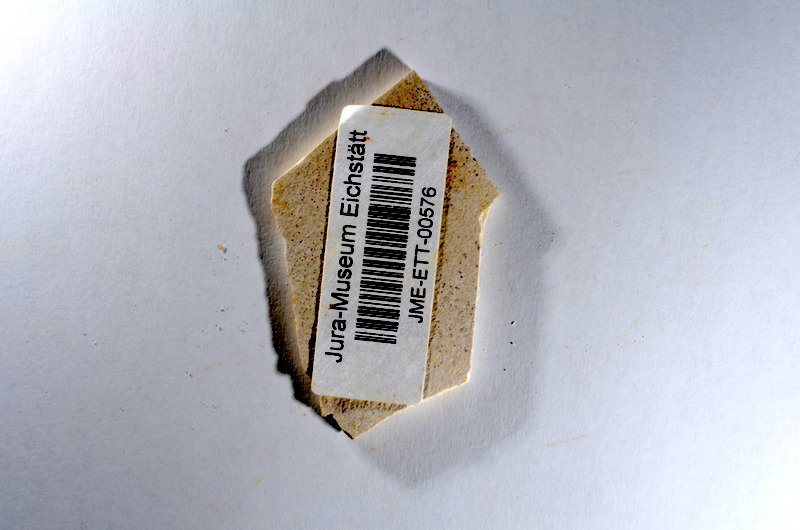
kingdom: Animalia
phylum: Chordata
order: Salmoniformes
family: Orthogonikleithridae
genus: Orthogonikleithrus
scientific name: Orthogonikleithrus hoelli
